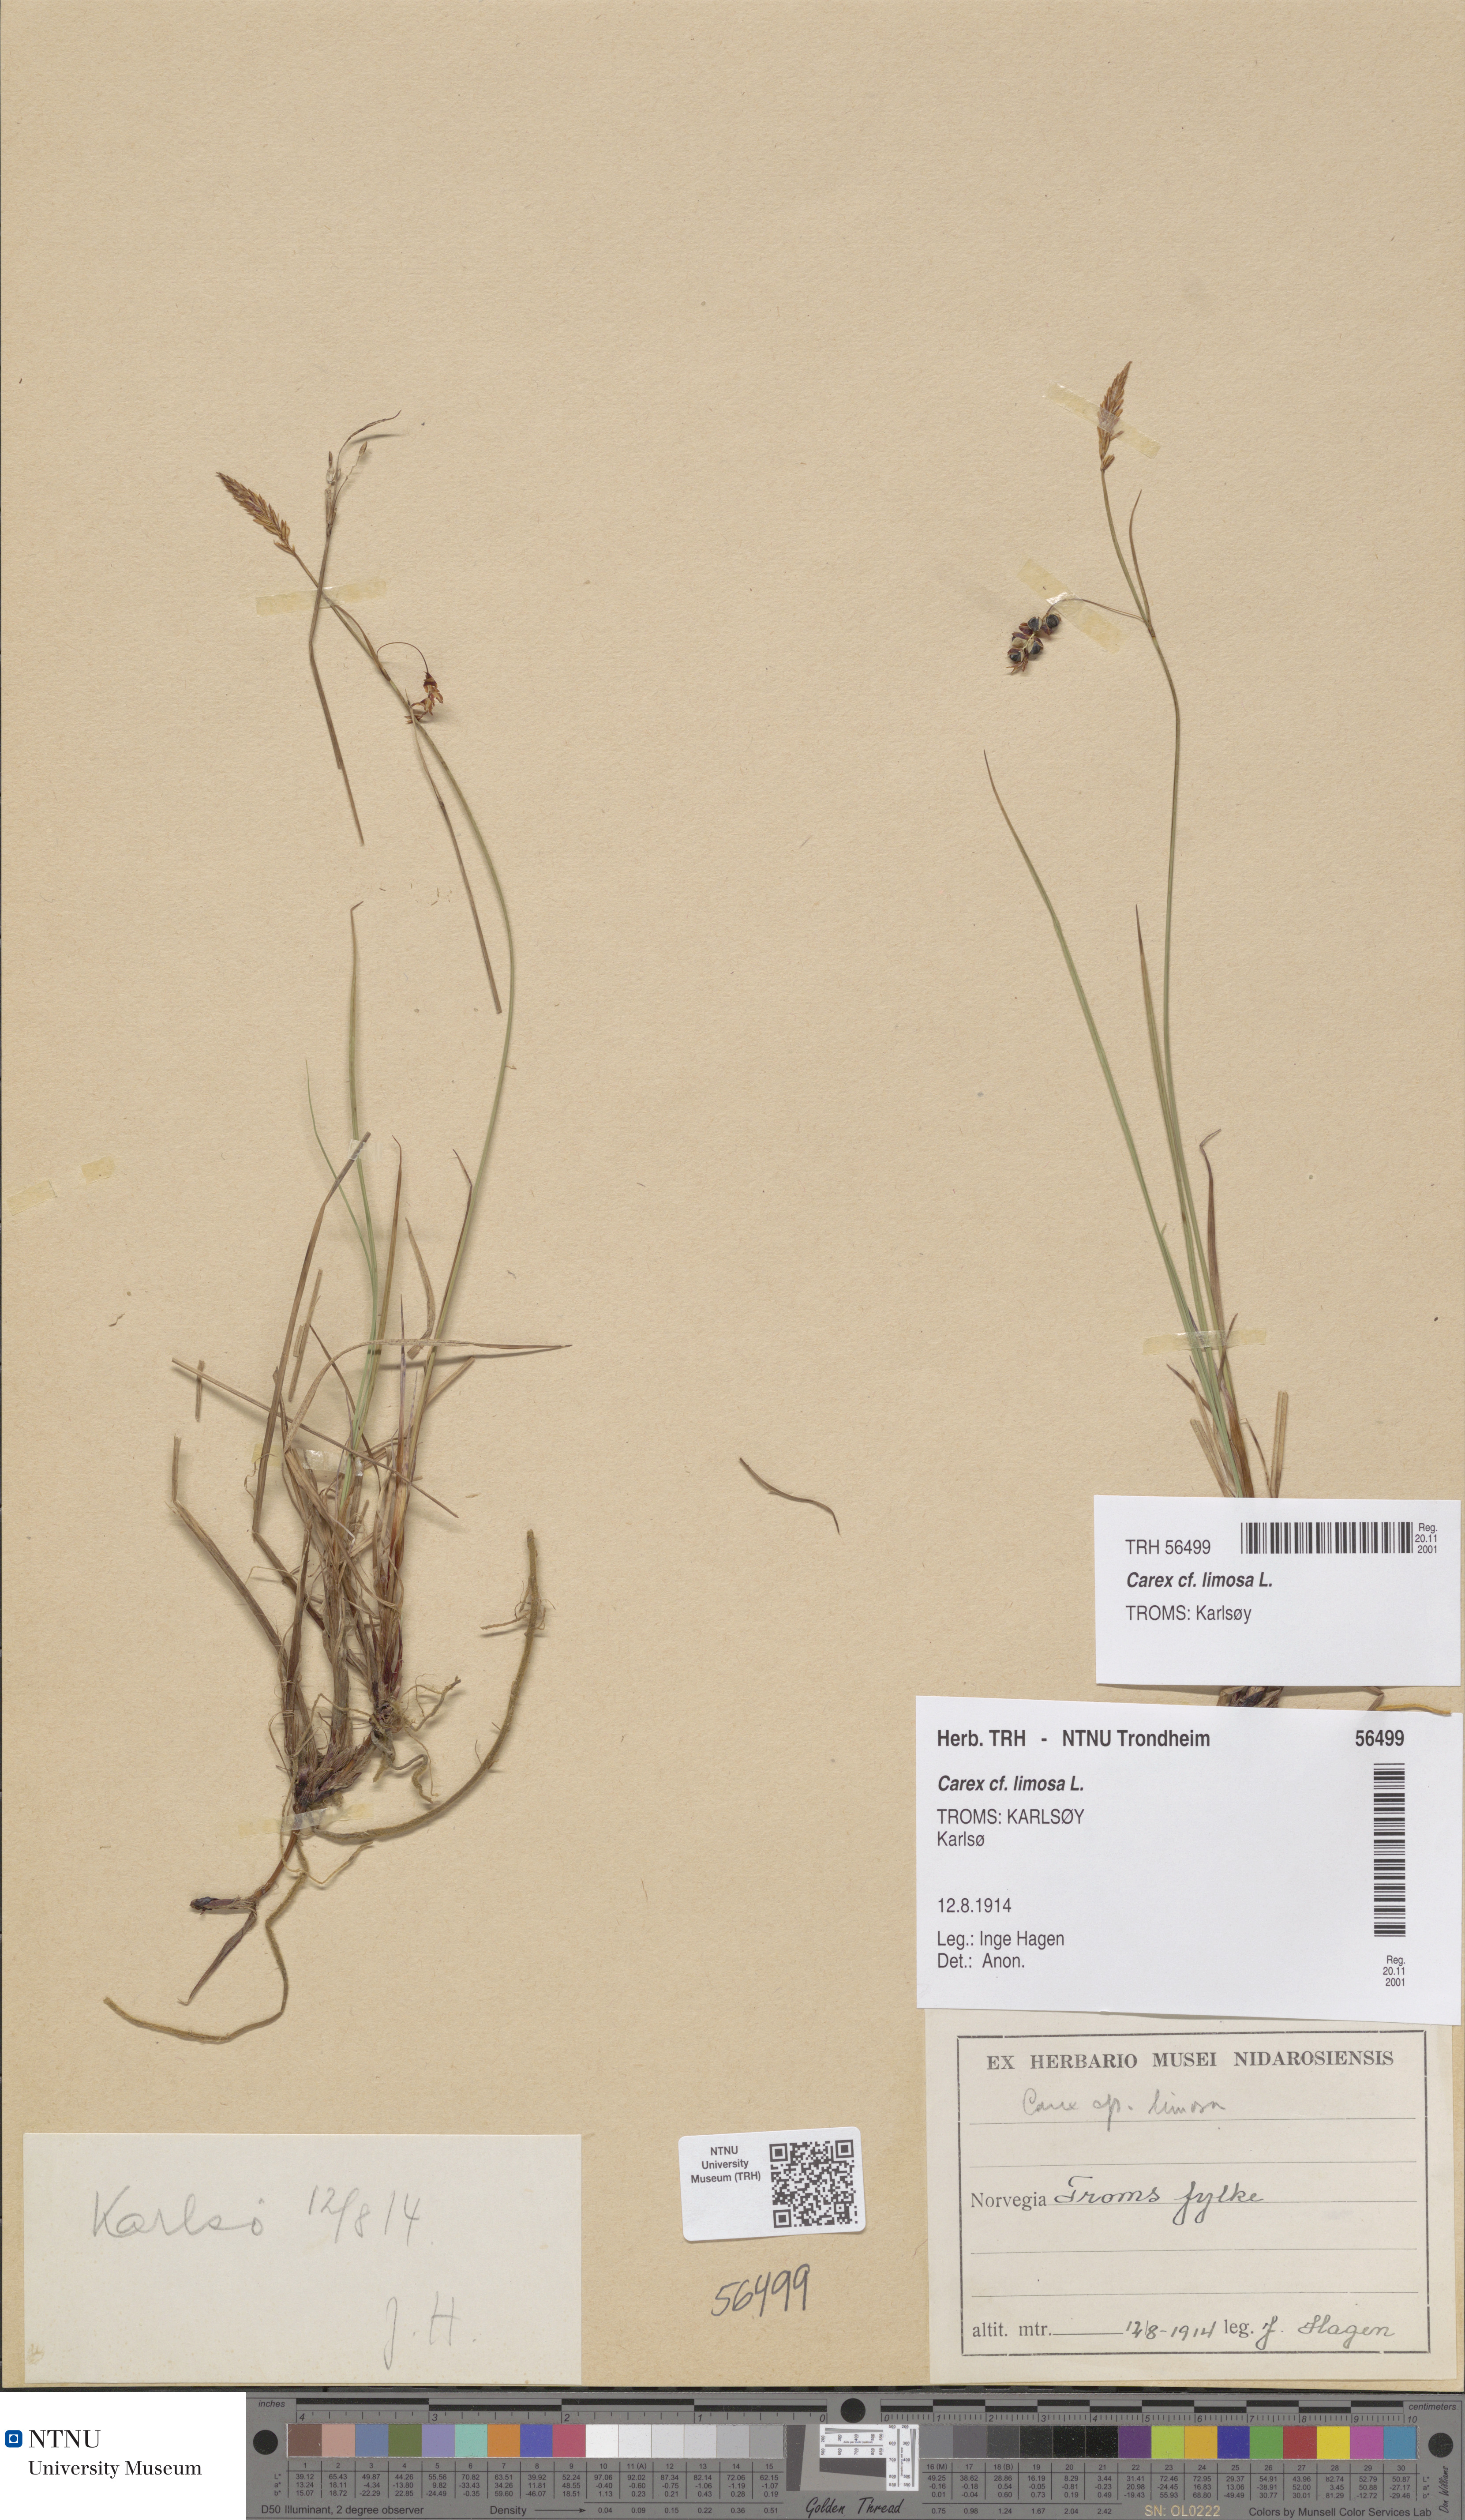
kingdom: Plantae
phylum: Tracheophyta
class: Liliopsida
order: Poales
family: Cyperaceae
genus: Carex
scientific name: Carex limosa
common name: Bog sedge
